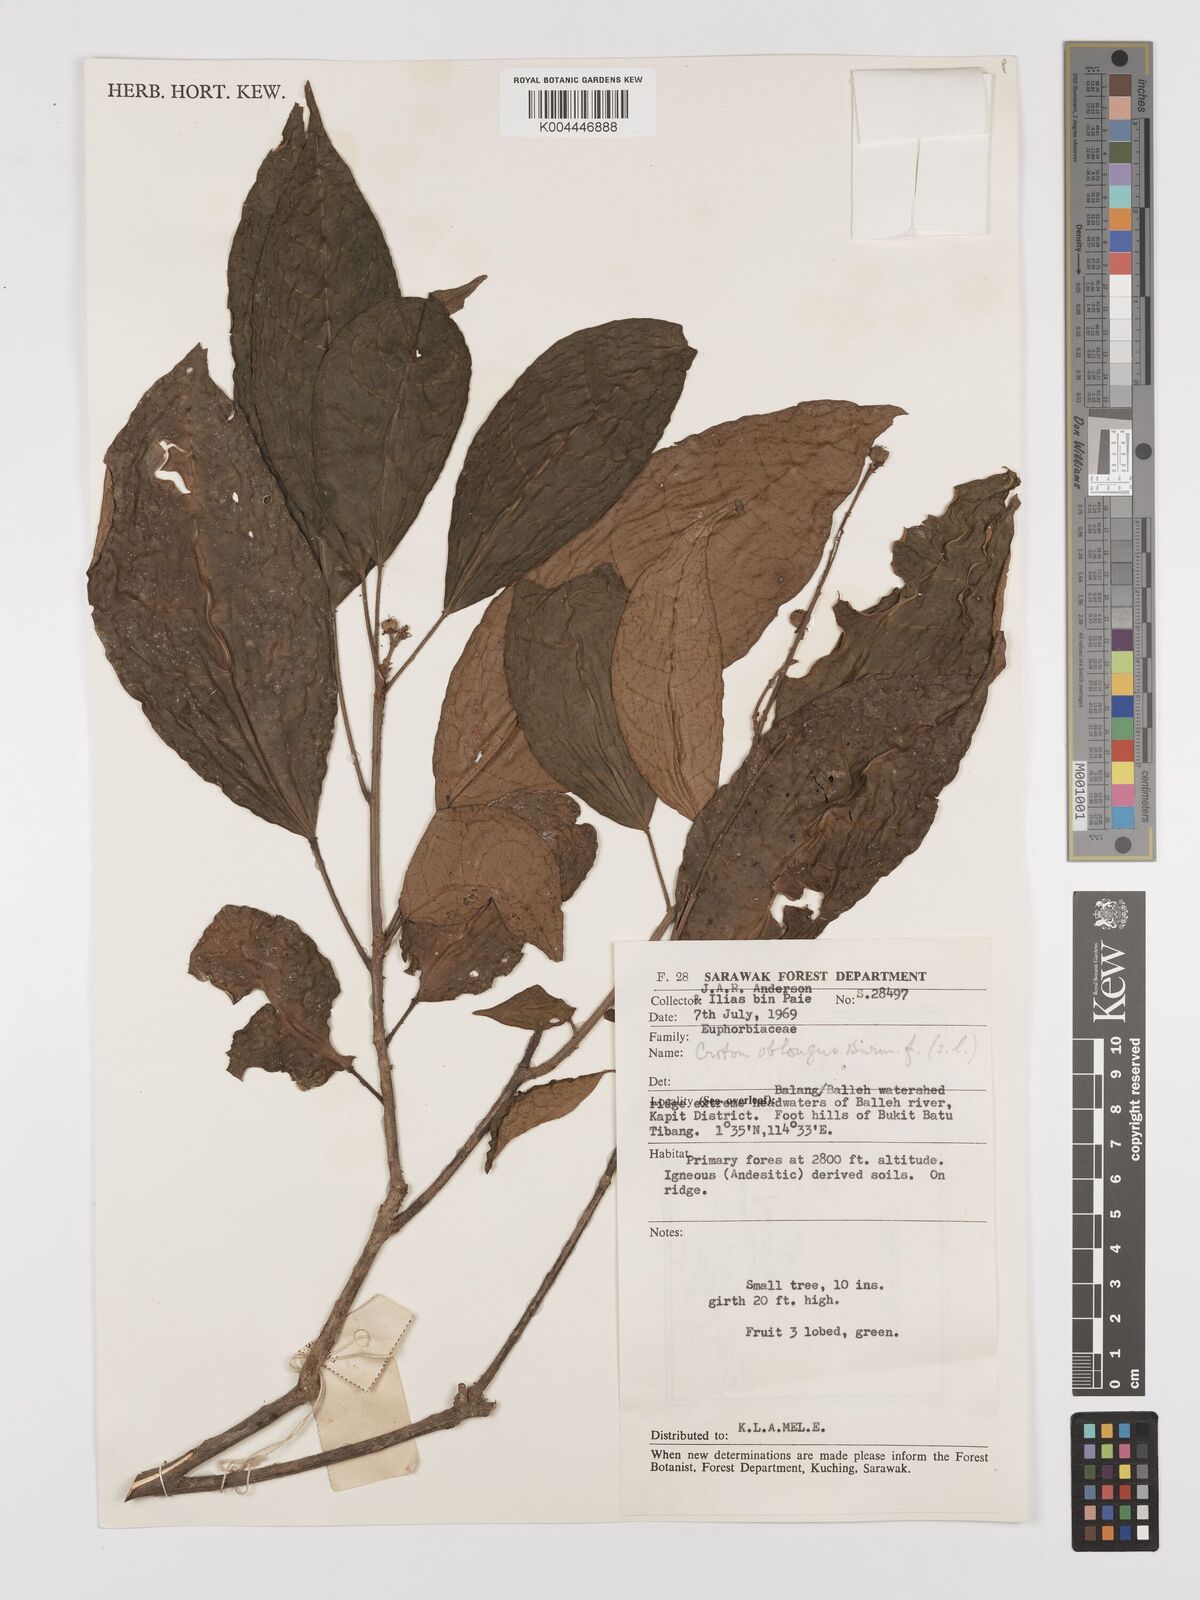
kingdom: Plantae
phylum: Tracheophyta
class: Magnoliopsida
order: Malpighiales
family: Euphorbiaceae
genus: Croton
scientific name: Croton oblongus
